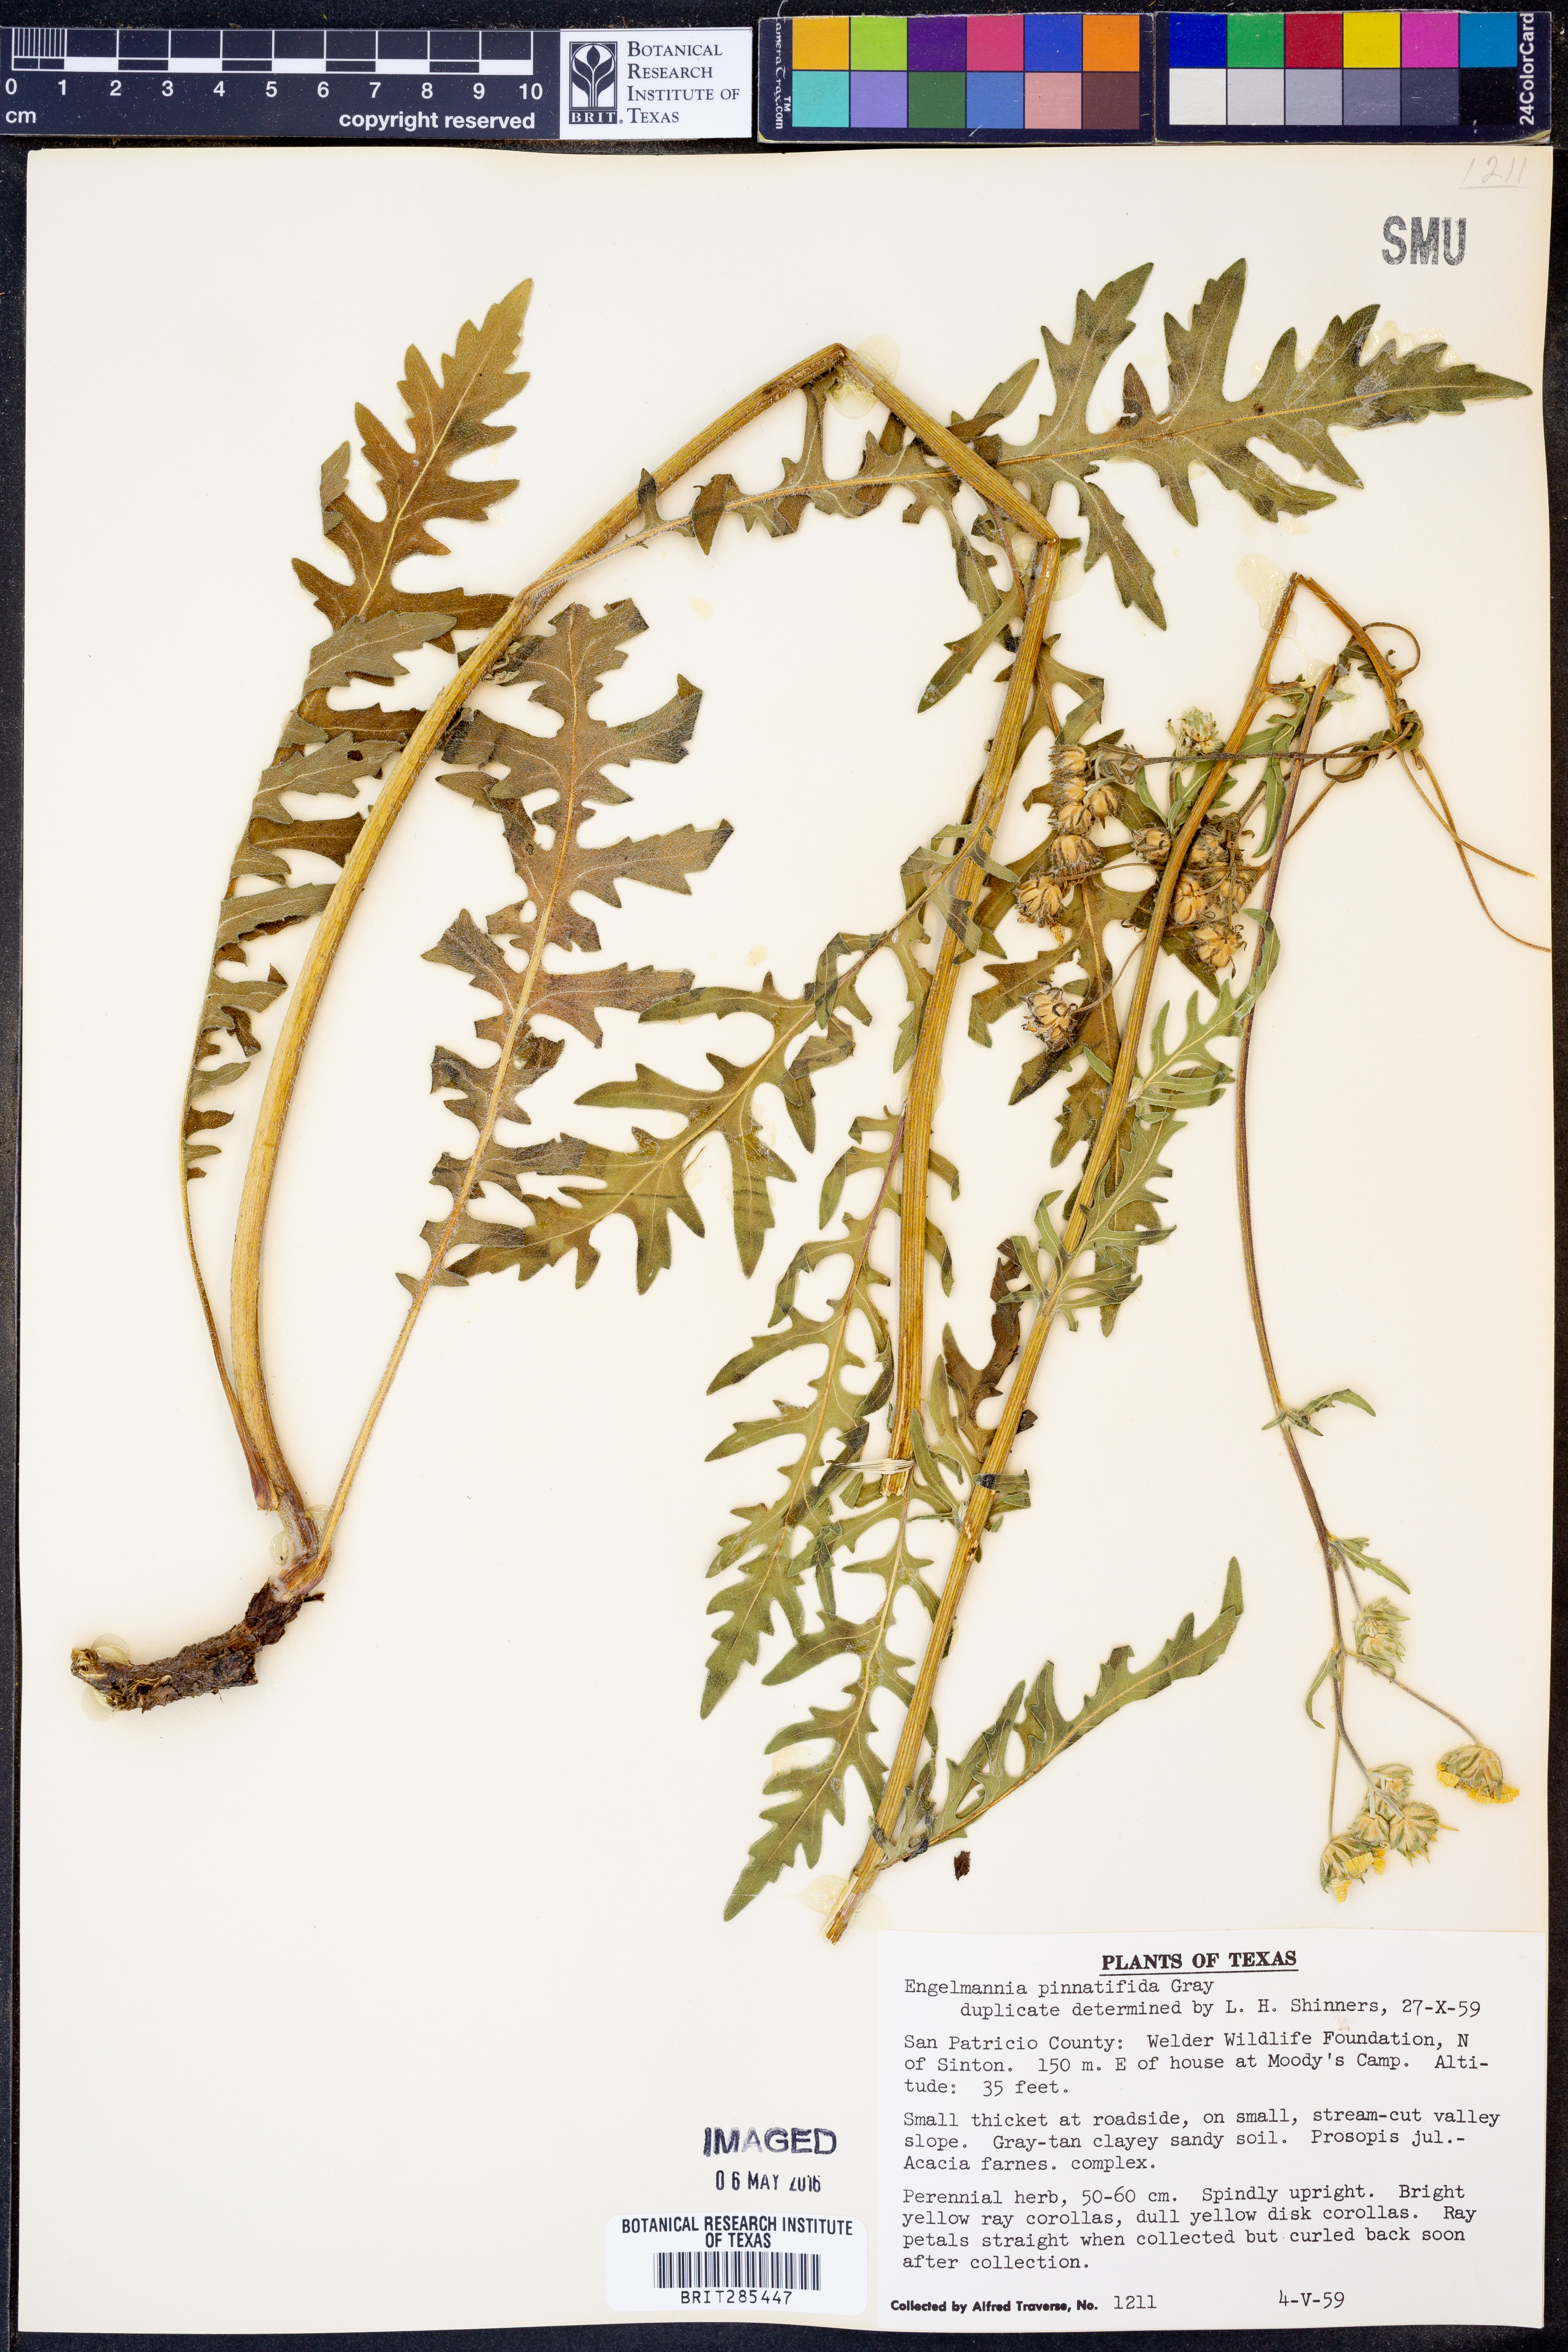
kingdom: Plantae
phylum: Tracheophyta
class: Magnoliopsida
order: Asterales
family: Asteraceae
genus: Engelmannia
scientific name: Engelmannia peristenia
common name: Engelmann's daisy
